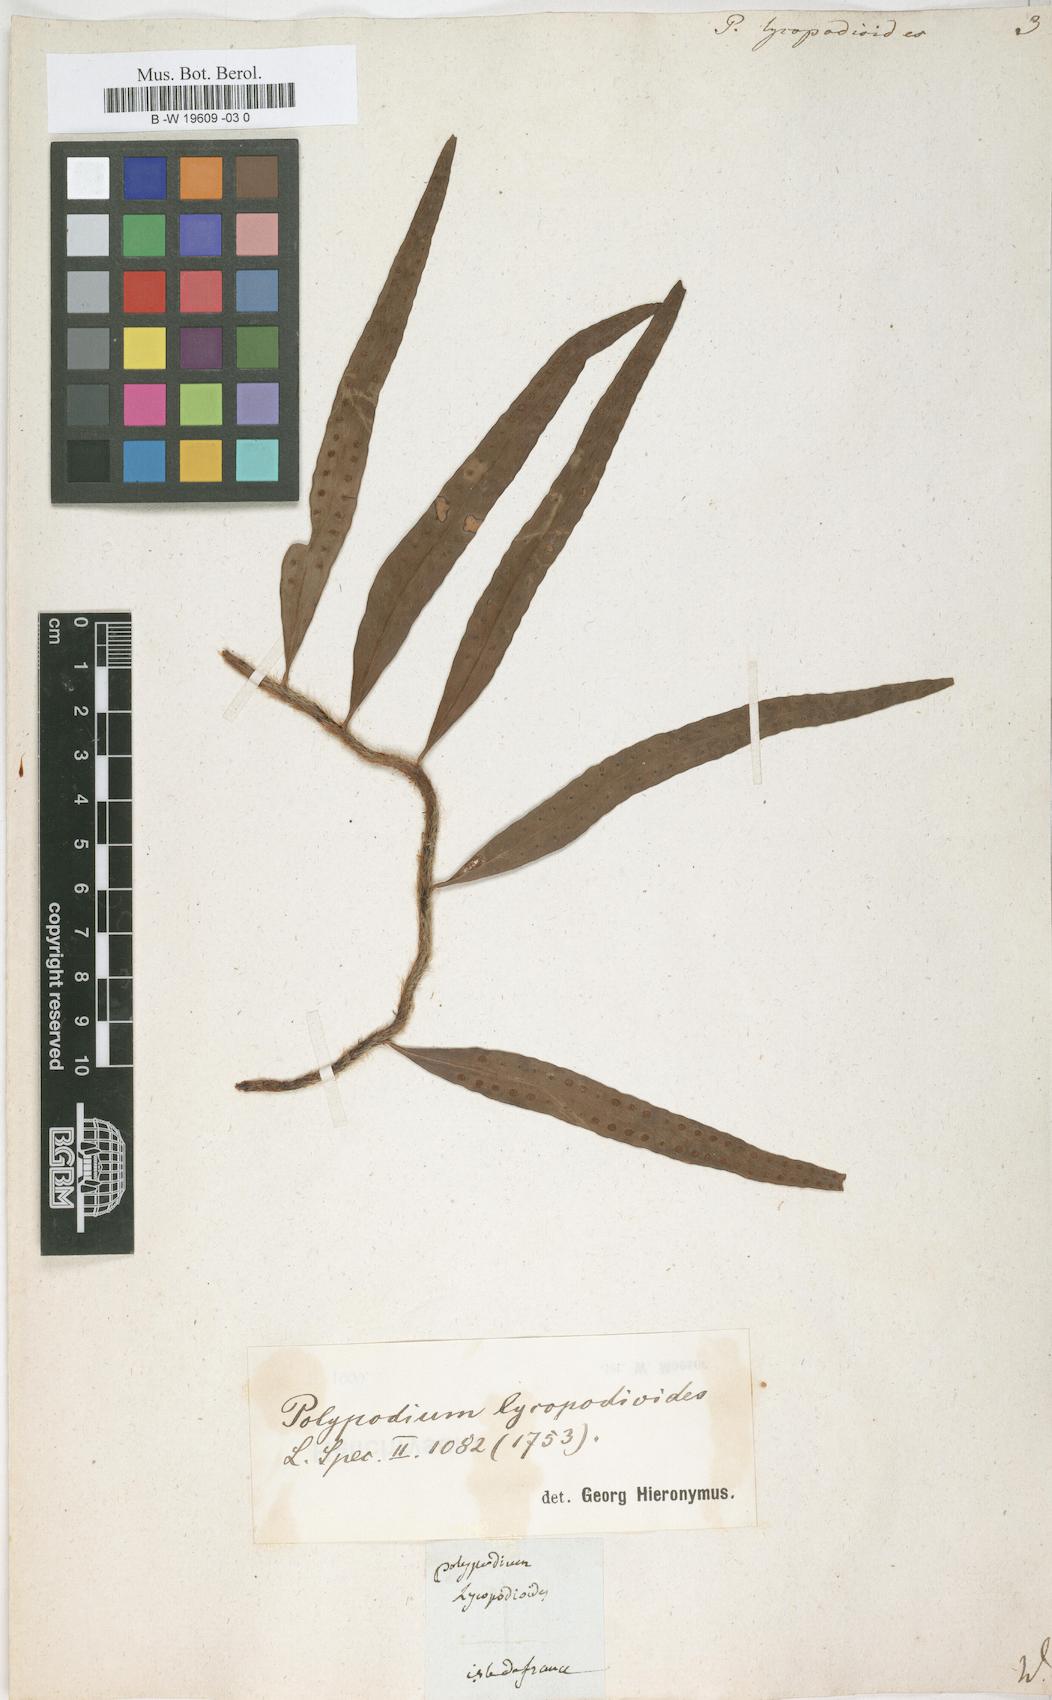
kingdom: Plantae
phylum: Tracheophyta
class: Polypodiopsida
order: Polypodiales
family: Polypodiaceae
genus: Microgramma
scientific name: Microgramma lycopodioides
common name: Bastard catclaw
